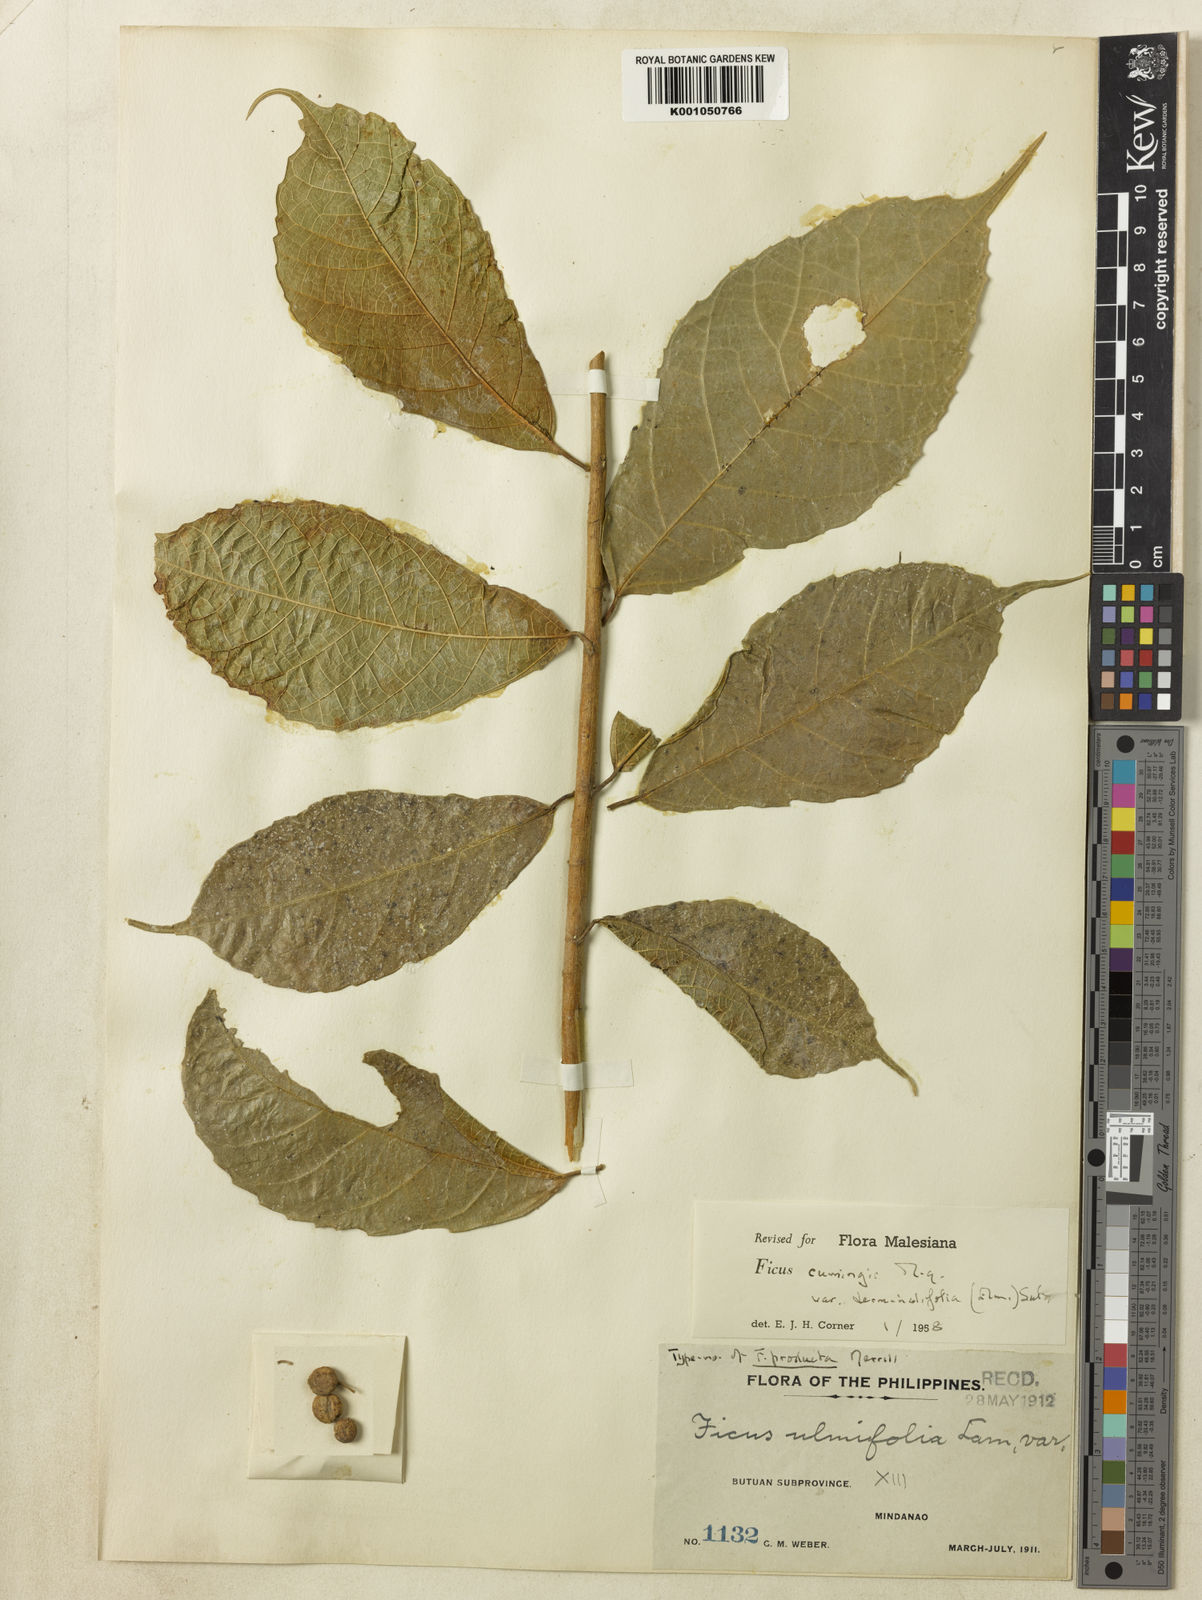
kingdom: Plantae
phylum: Tracheophyta
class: Magnoliopsida
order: Rosales
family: Moraceae
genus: Ficus
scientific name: Ficus cumingii
